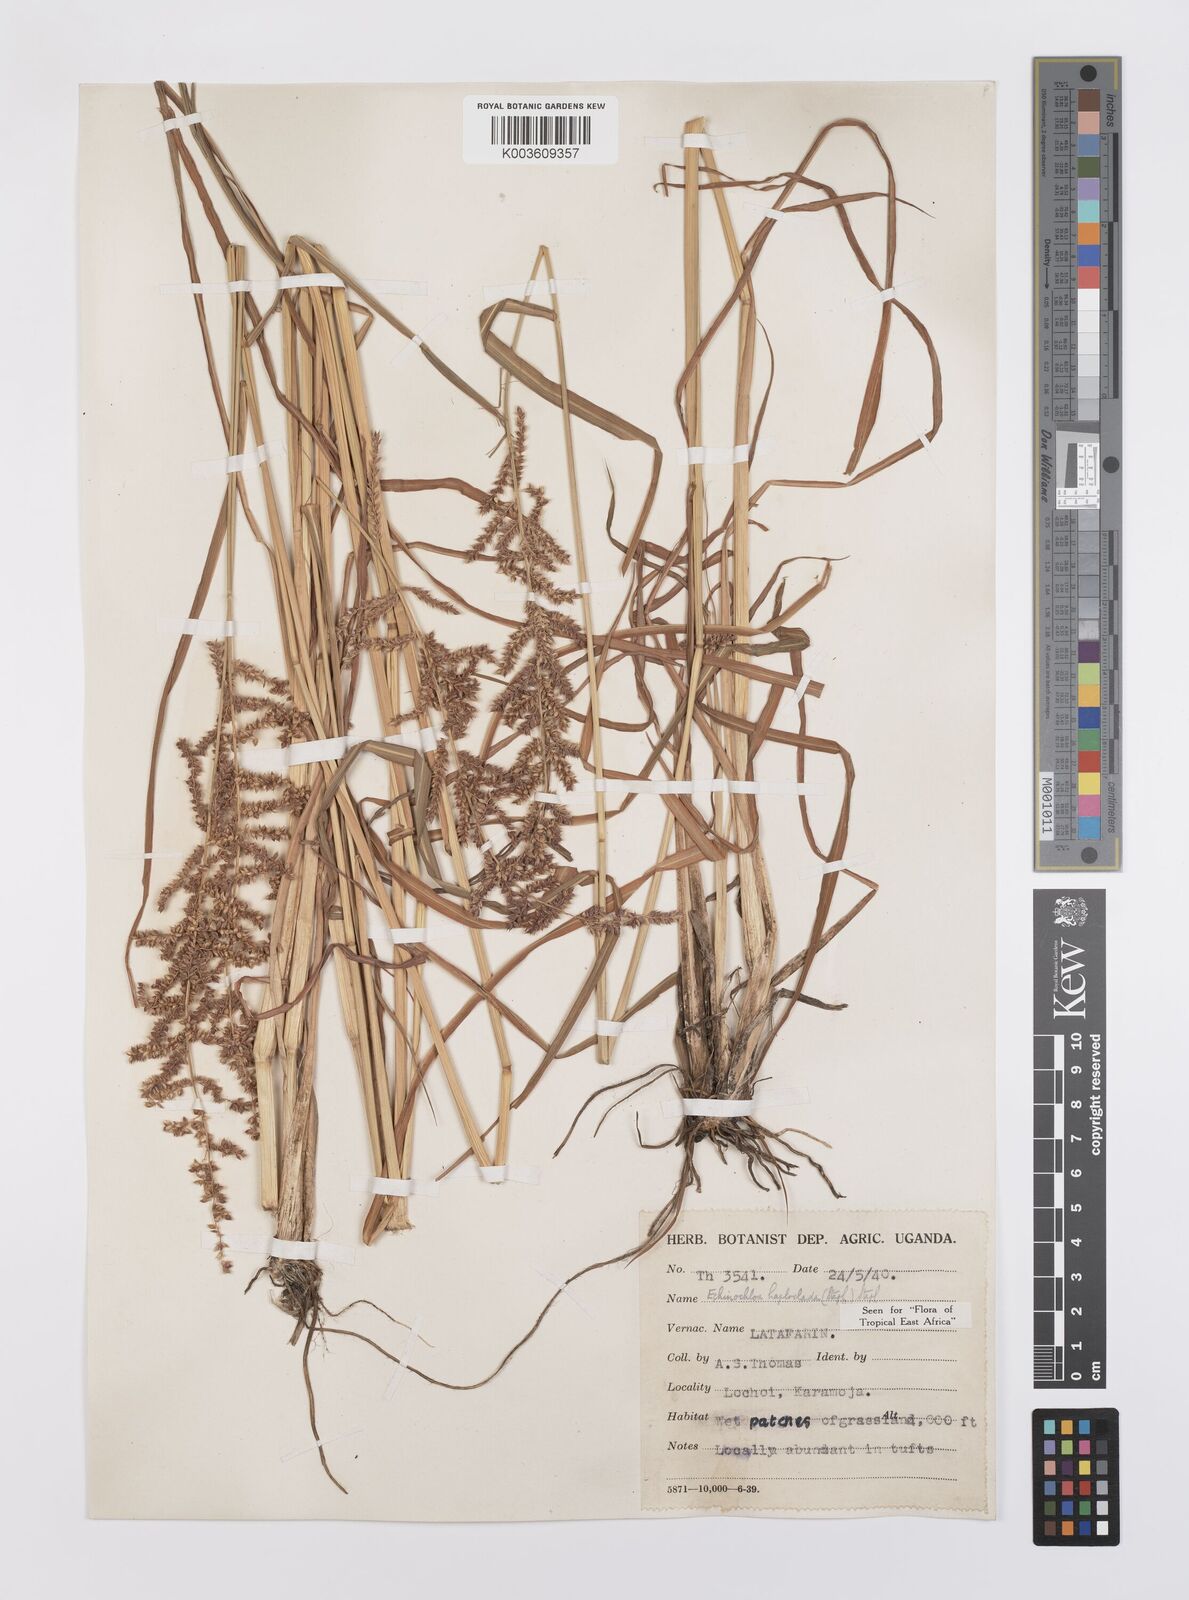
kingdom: Plantae
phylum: Tracheophyta
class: Liliopsida
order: Poales
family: Poaceae
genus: Echinochloa
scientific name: Echinochloa haploclada
